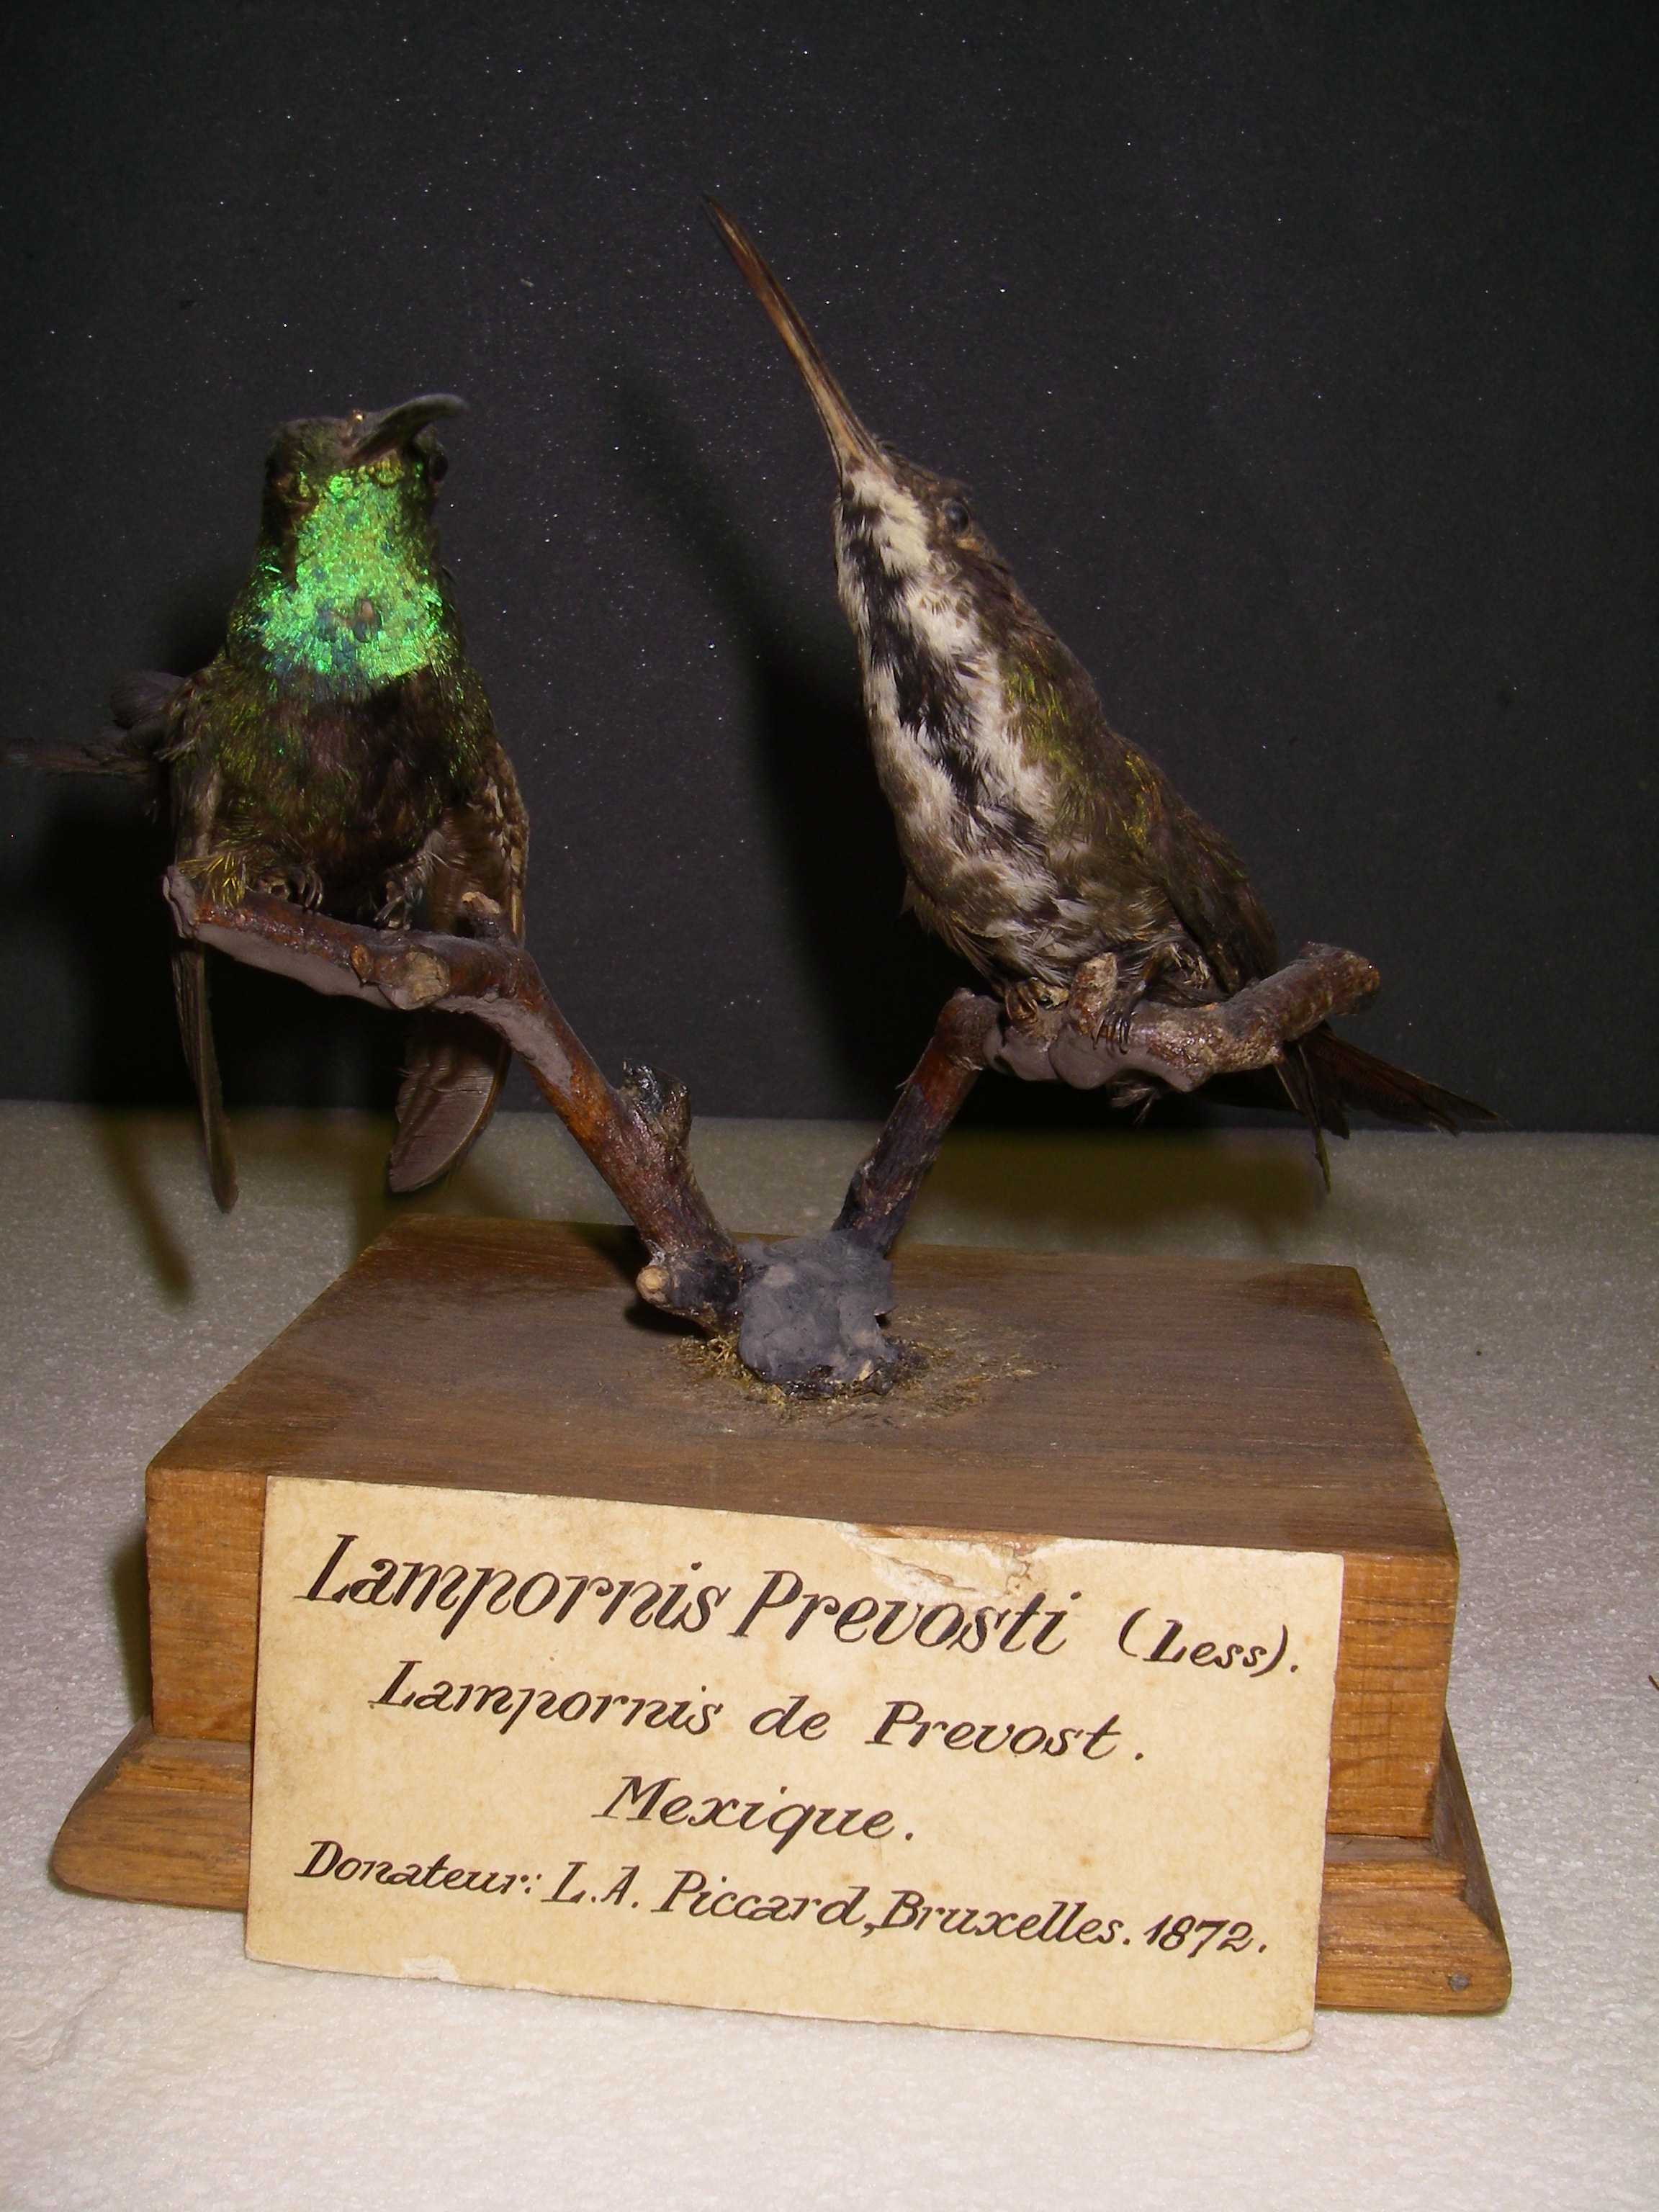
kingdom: Animalia
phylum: Chordata
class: Aves
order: Apodiformes
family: Trochilidae
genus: Anthracothorax
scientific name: Anthracothorax viridigula
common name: Green-throated mango
